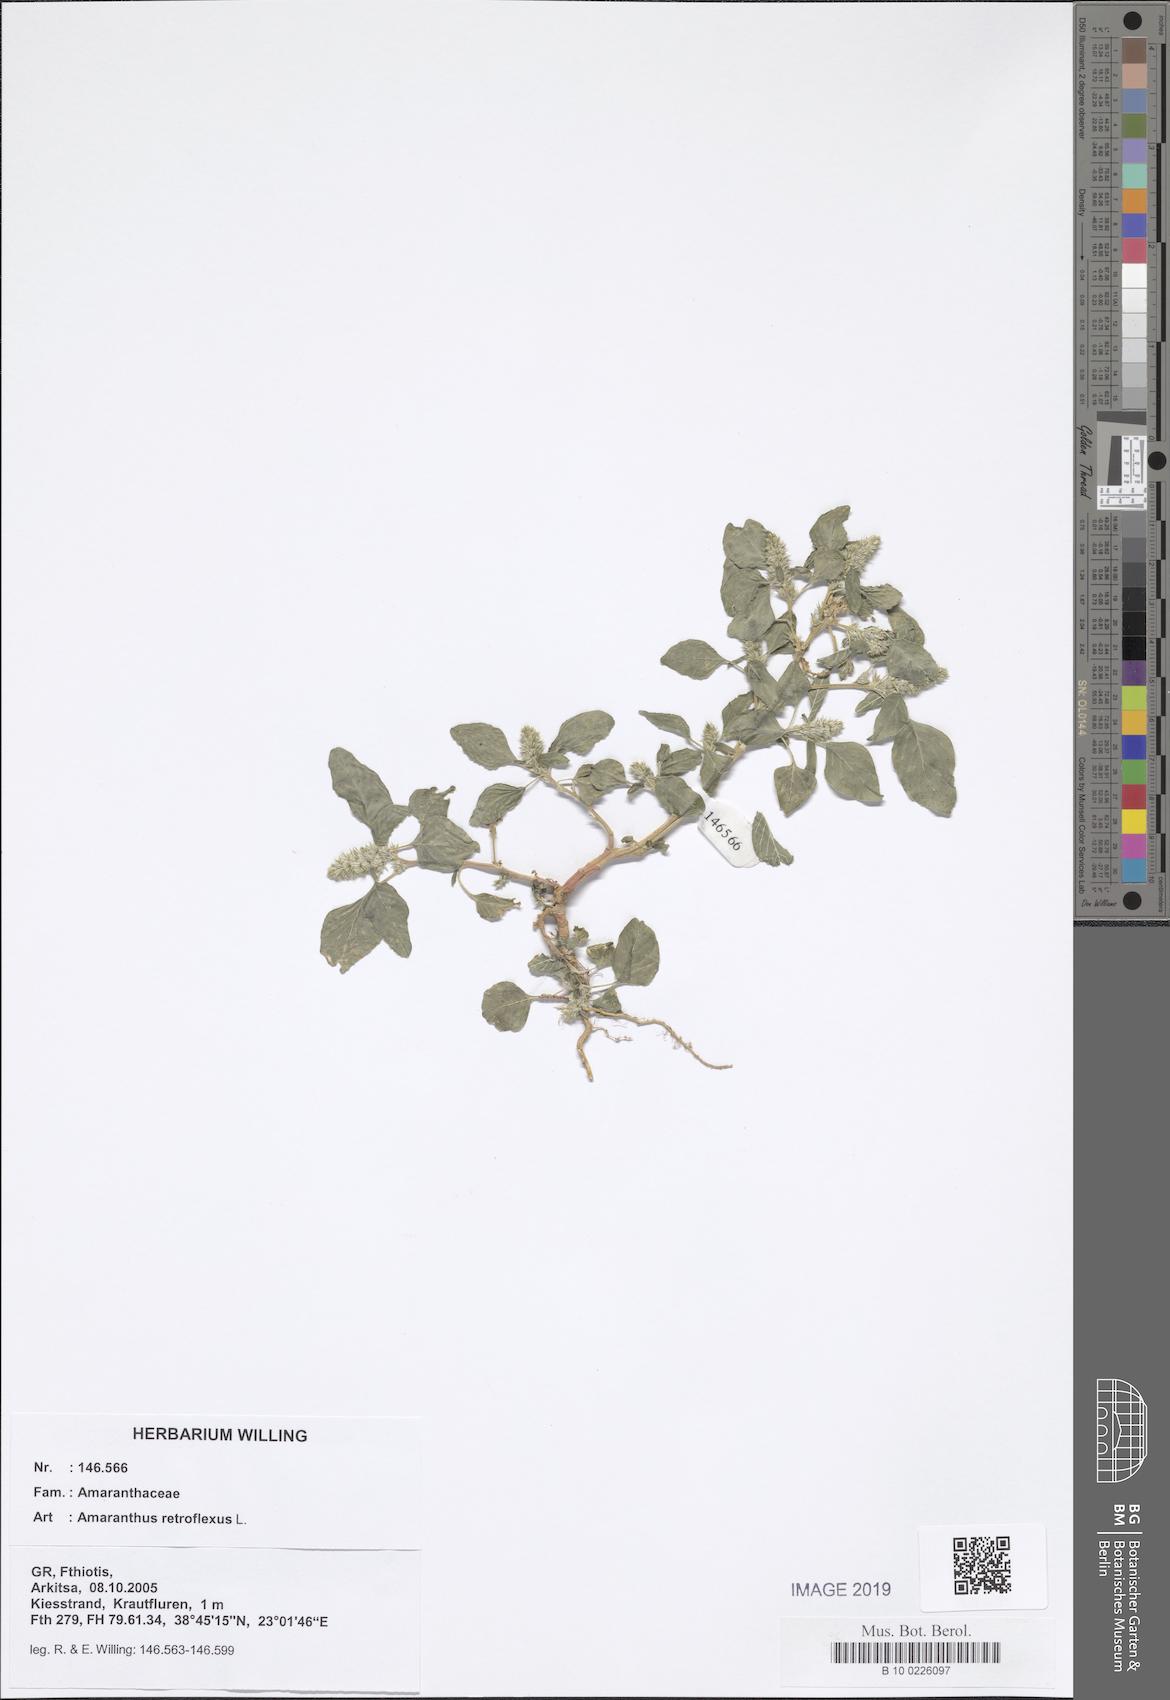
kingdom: Plantae
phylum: Tracheophyta
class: Magnoliopsida
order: Caryophyllales
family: Amaranthaceae
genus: Amaranthus
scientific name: Amaranthus retroflexus
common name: Redroot amaranth
